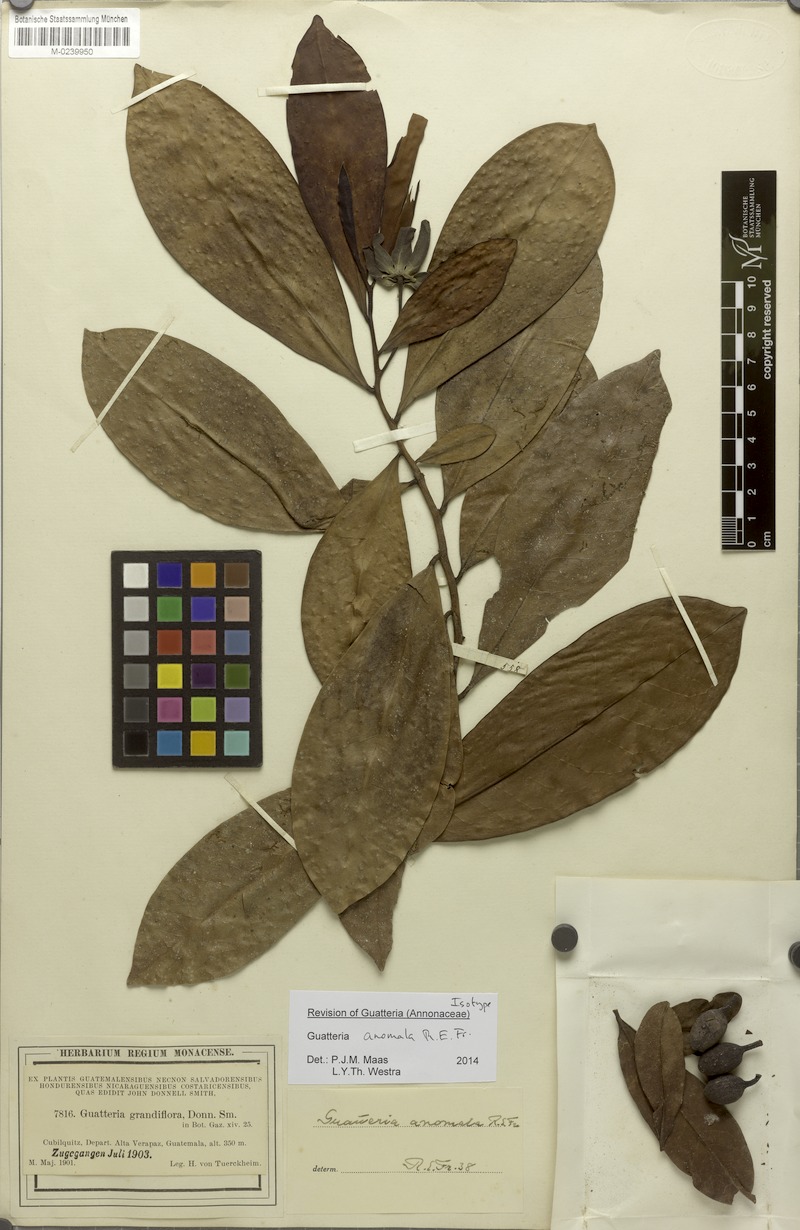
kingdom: Plantae
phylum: Tracheophyta
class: Magnoliopsida
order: Magnoliales
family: Annonaceae
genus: Guatteria
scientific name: Guatteria anomala
